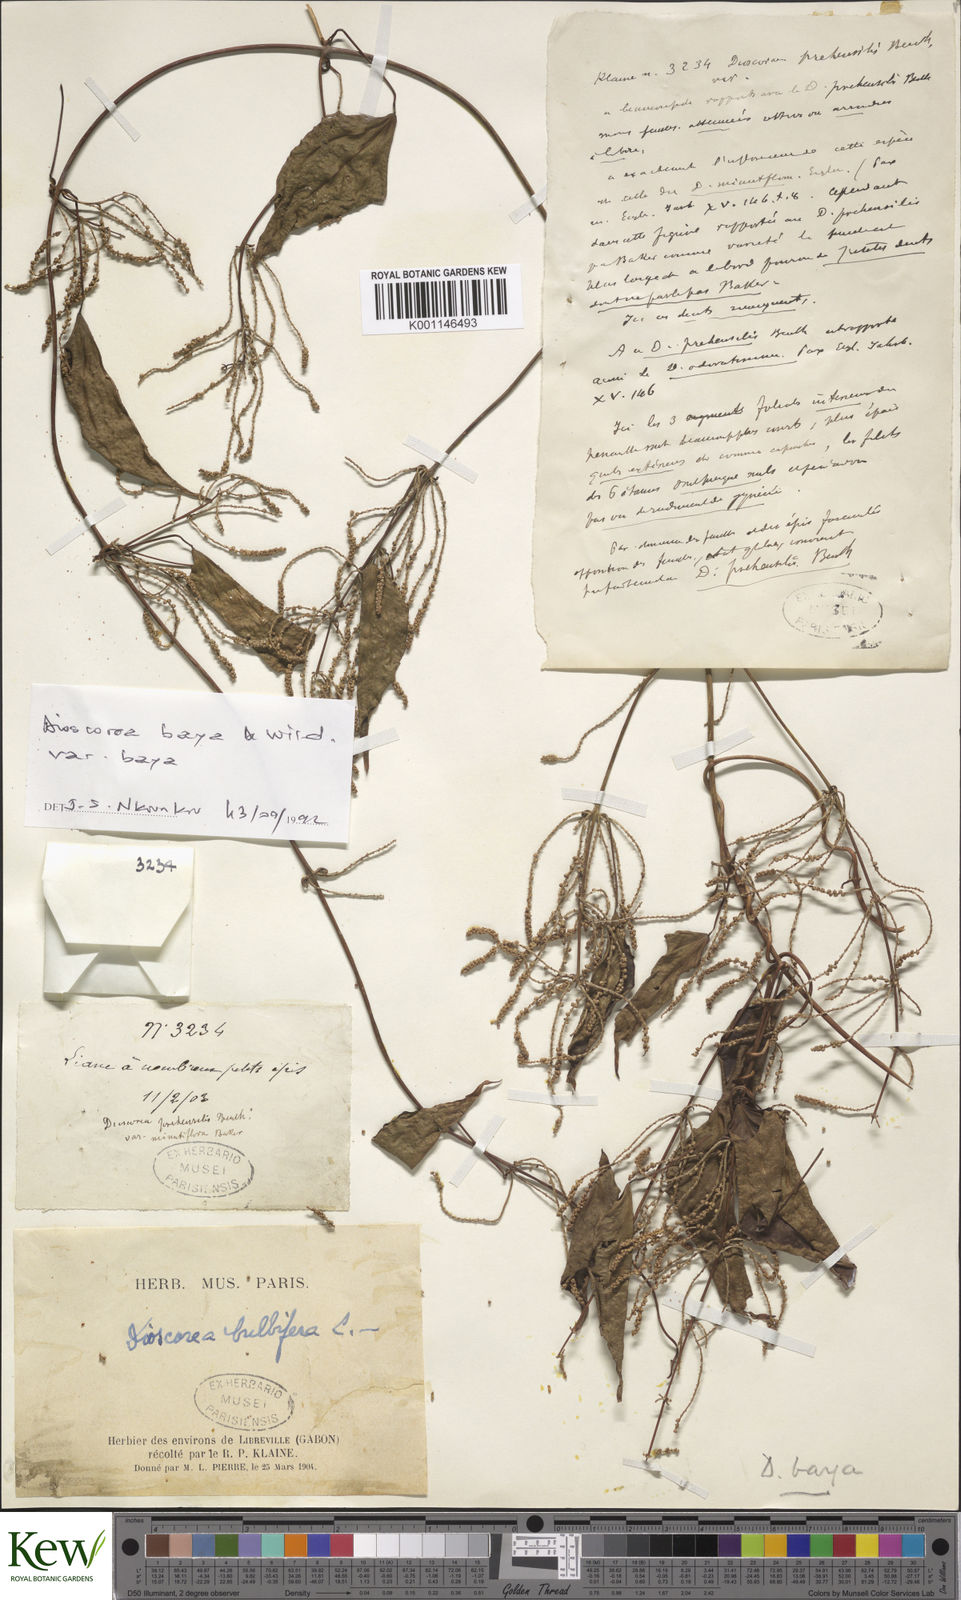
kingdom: Plantae
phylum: Tracheophyta
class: Liliopsida
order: Dioscoreales
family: Dioscoreaceae
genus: Dioscorea
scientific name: Dioscorea baya
